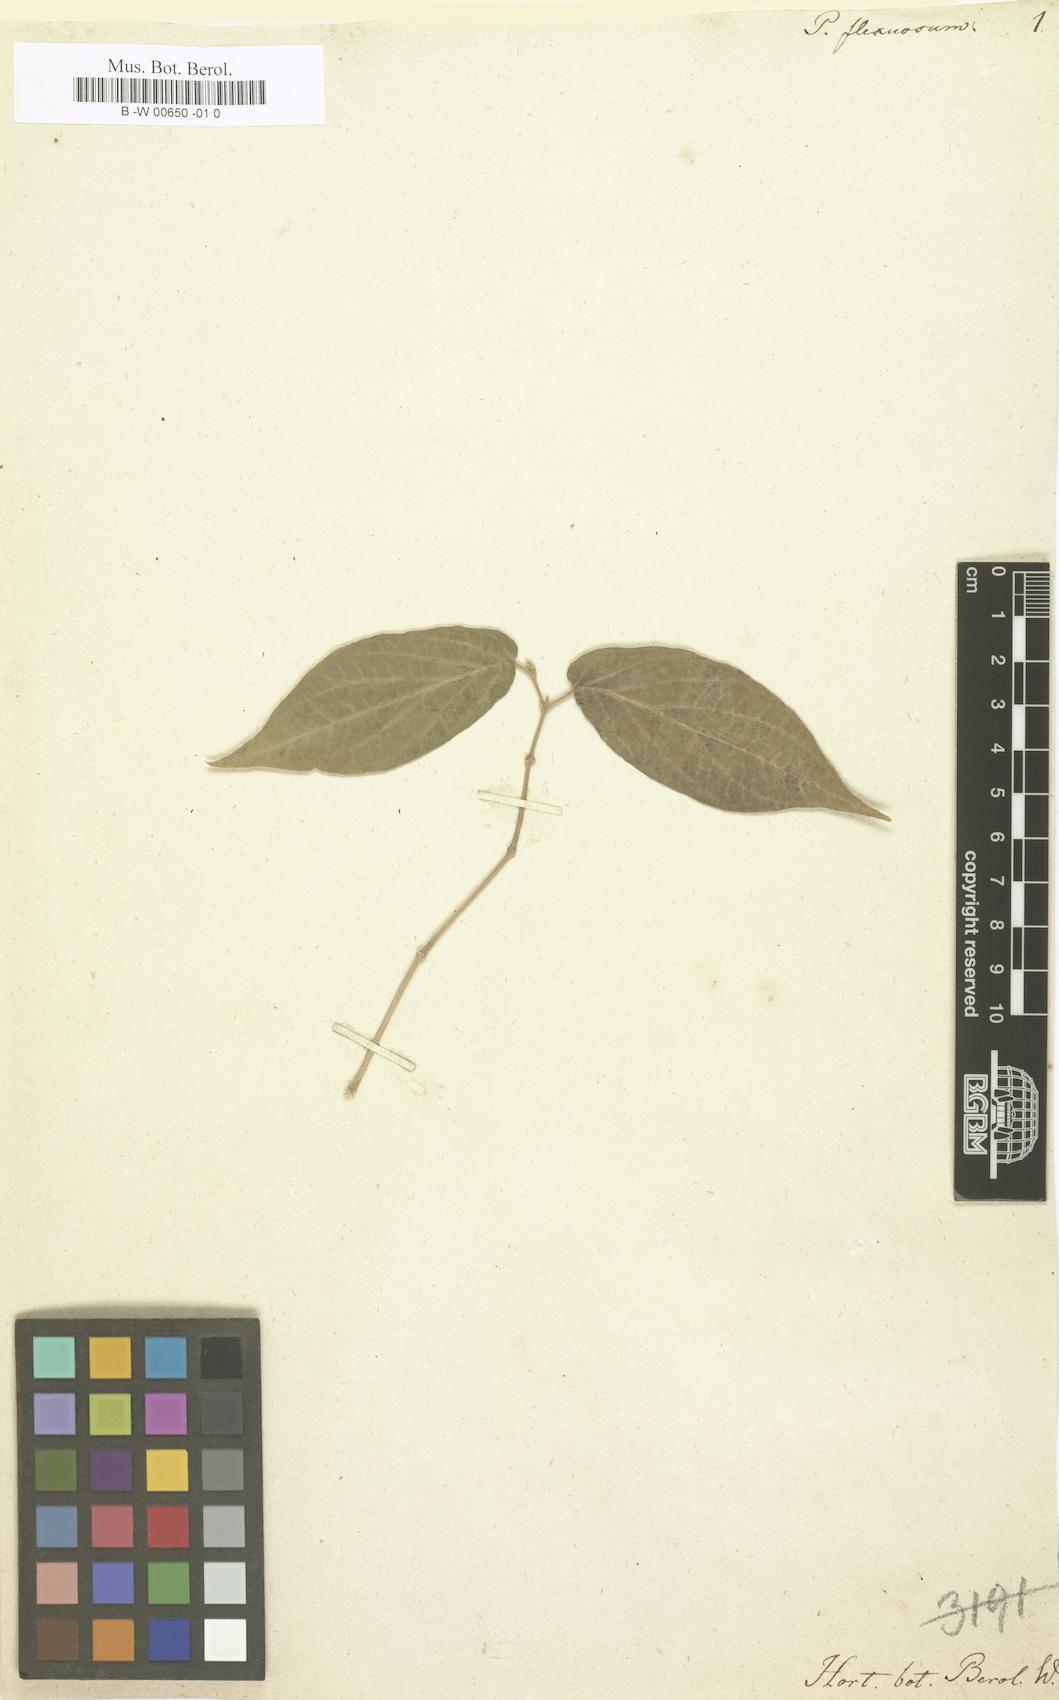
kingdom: Plantae
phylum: Tracheophyta
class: Magnoliopsida
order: Piperales
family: Piperaceae
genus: Piper
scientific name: Piper flexuosum
